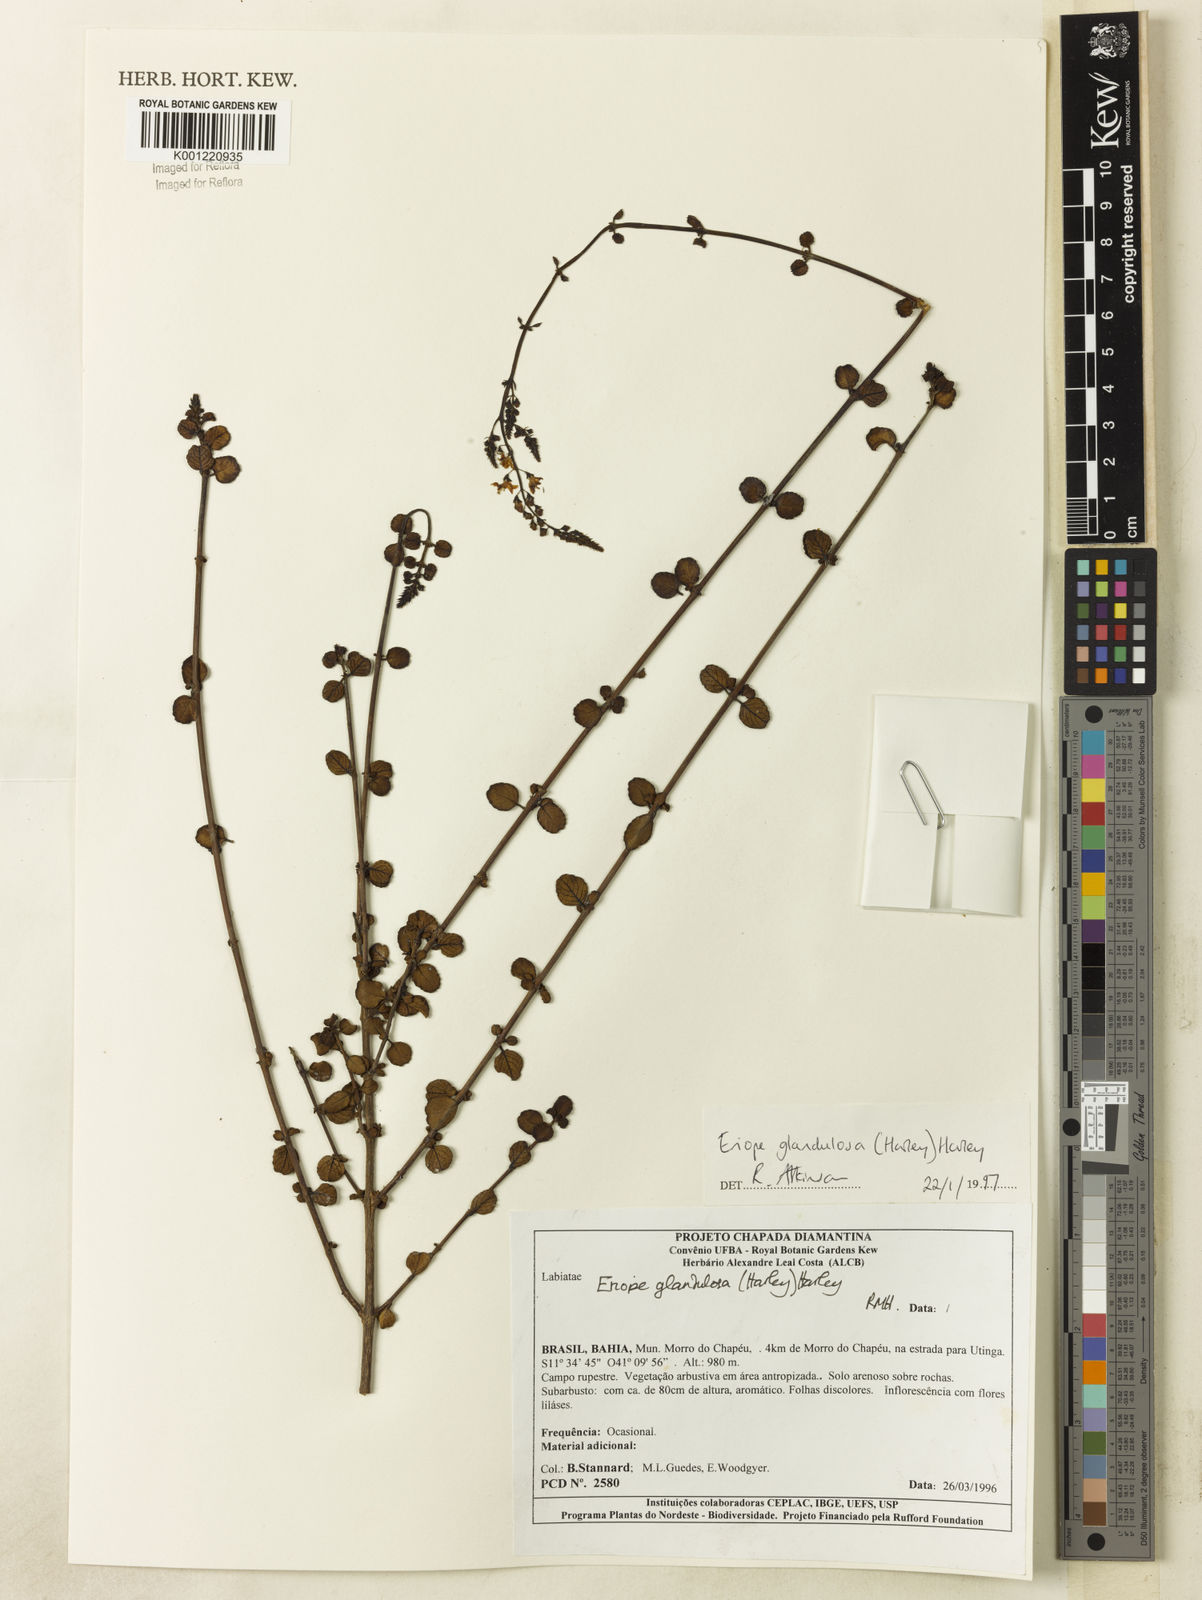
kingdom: Plantae
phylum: Tracheophyta
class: Magnoliopsida
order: Lamiales
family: Lamiaceae
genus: Eriope
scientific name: Eriope glandulosa
